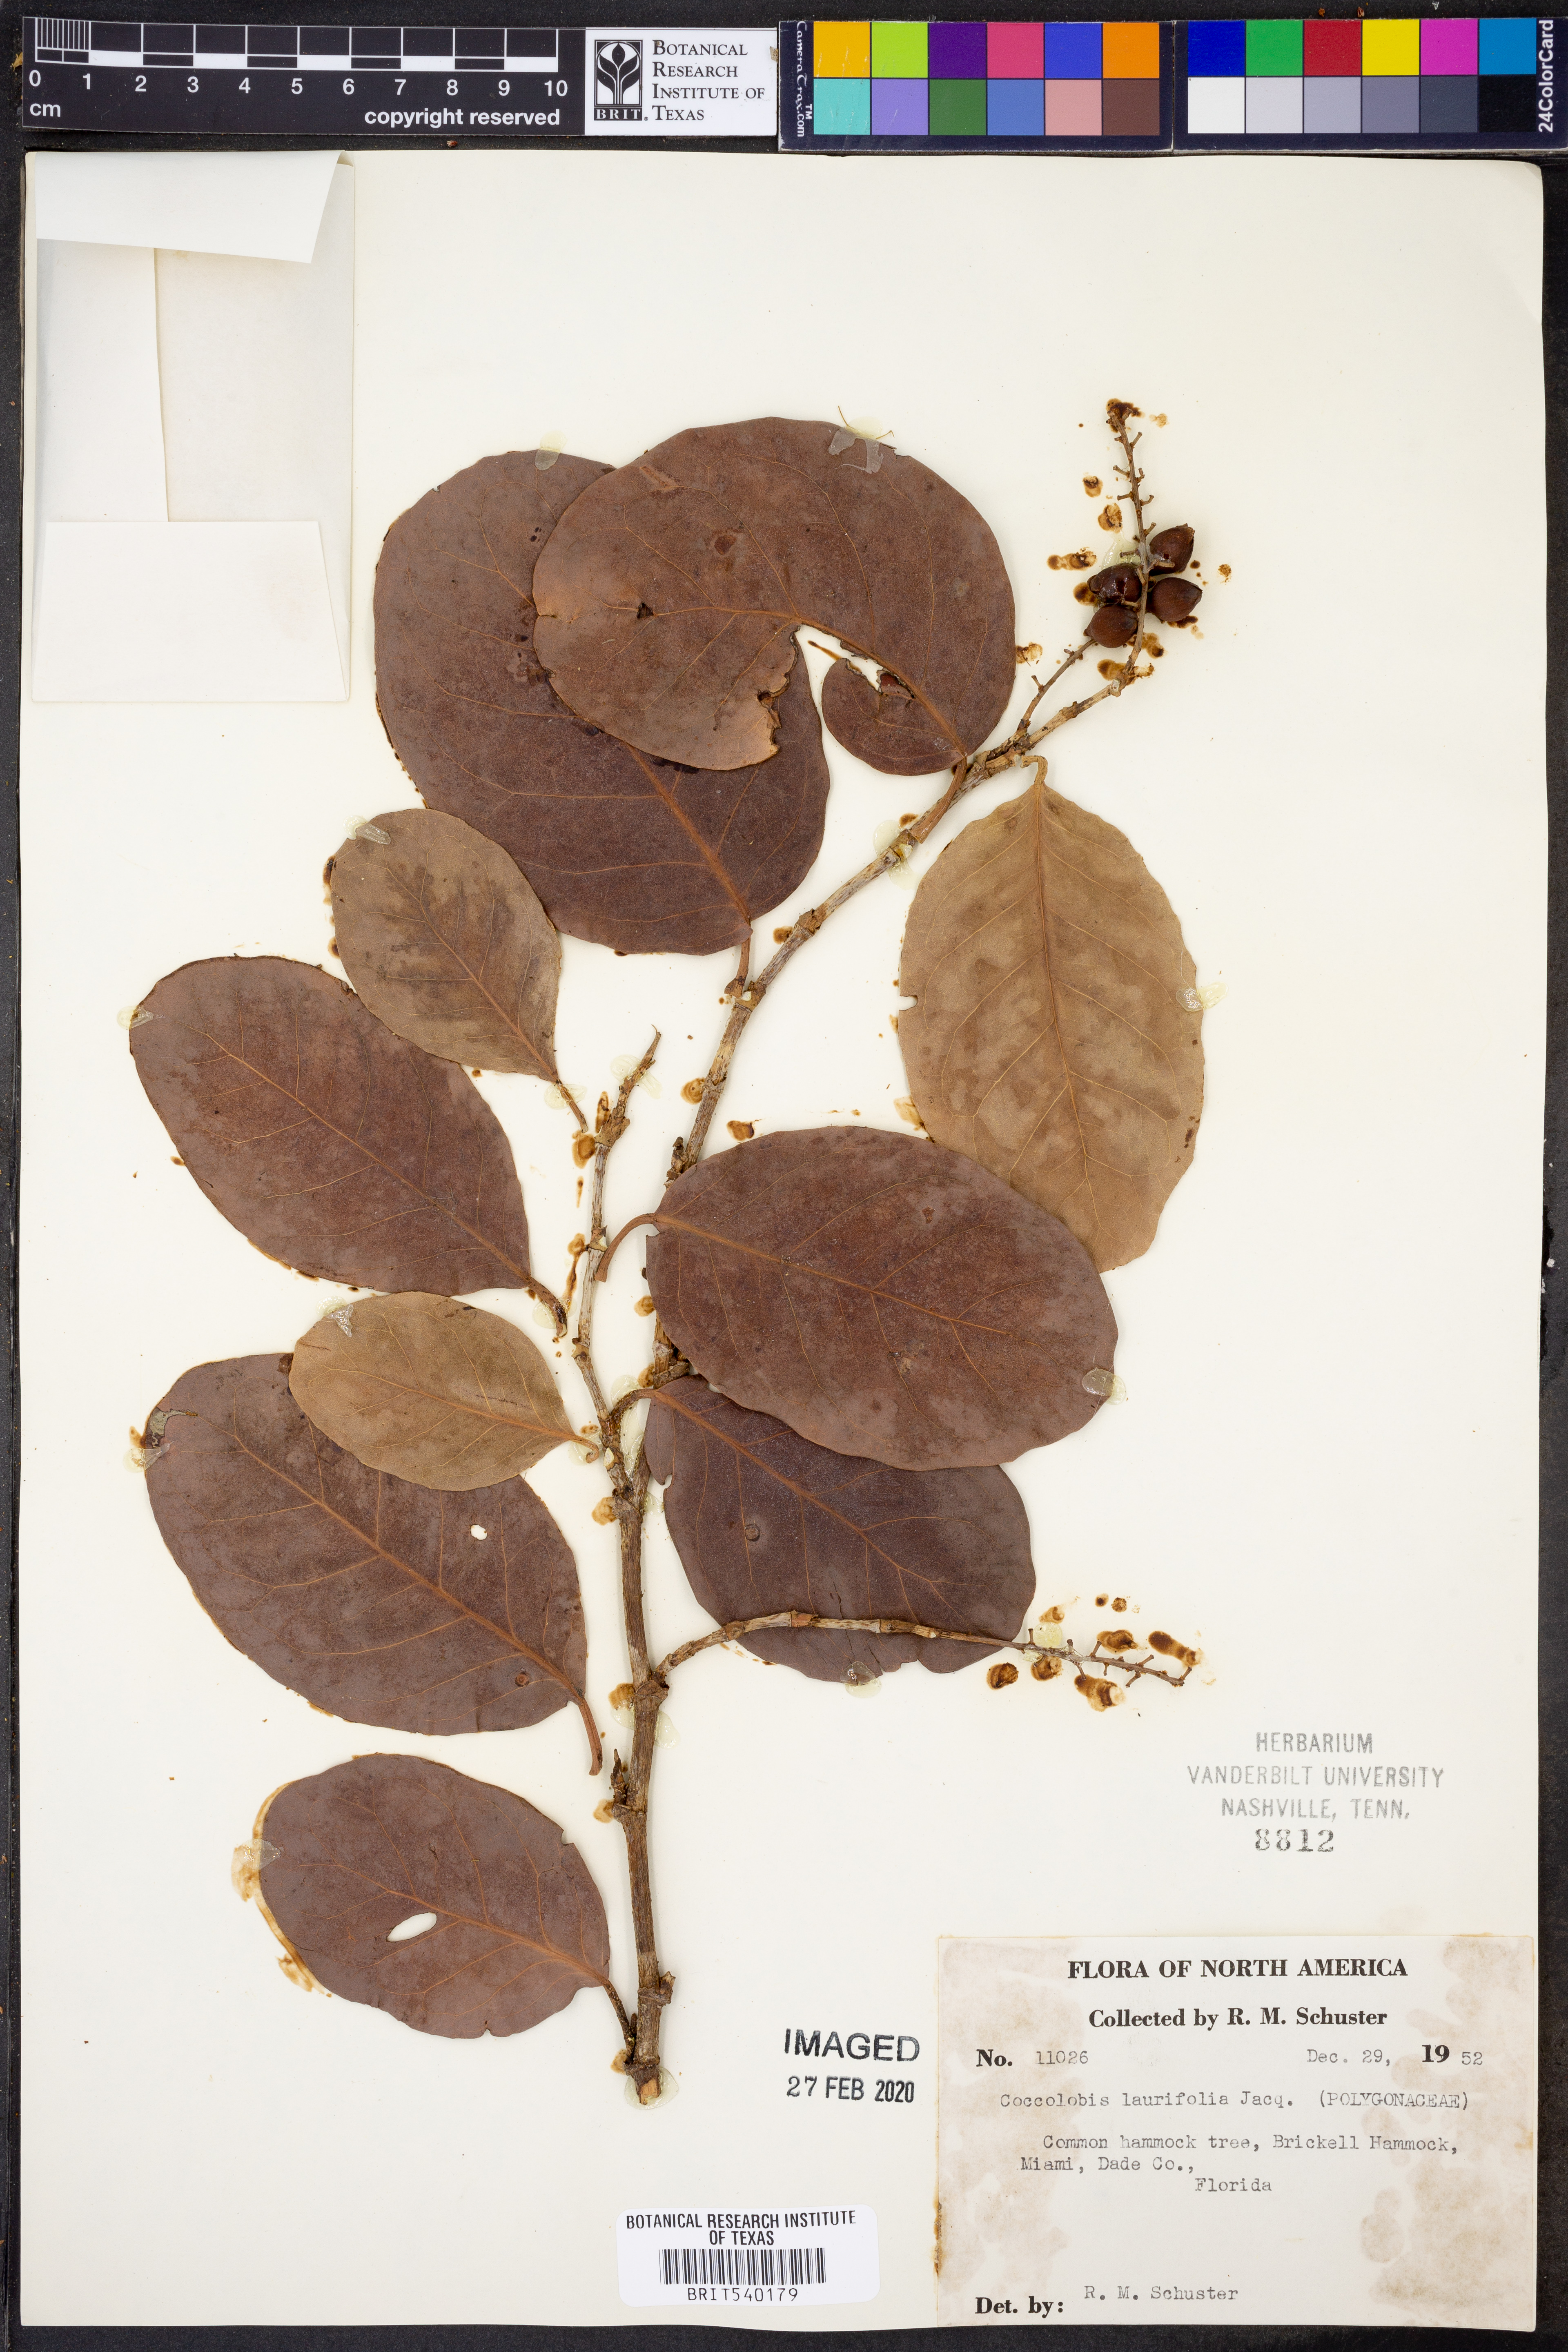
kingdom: Plantae
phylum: Tracheophyta
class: Magnoliopsida
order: Caryophyllales
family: Polygonaceae
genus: Coccoloba
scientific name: Coccoloba diversifolia
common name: Pigeon-plum
